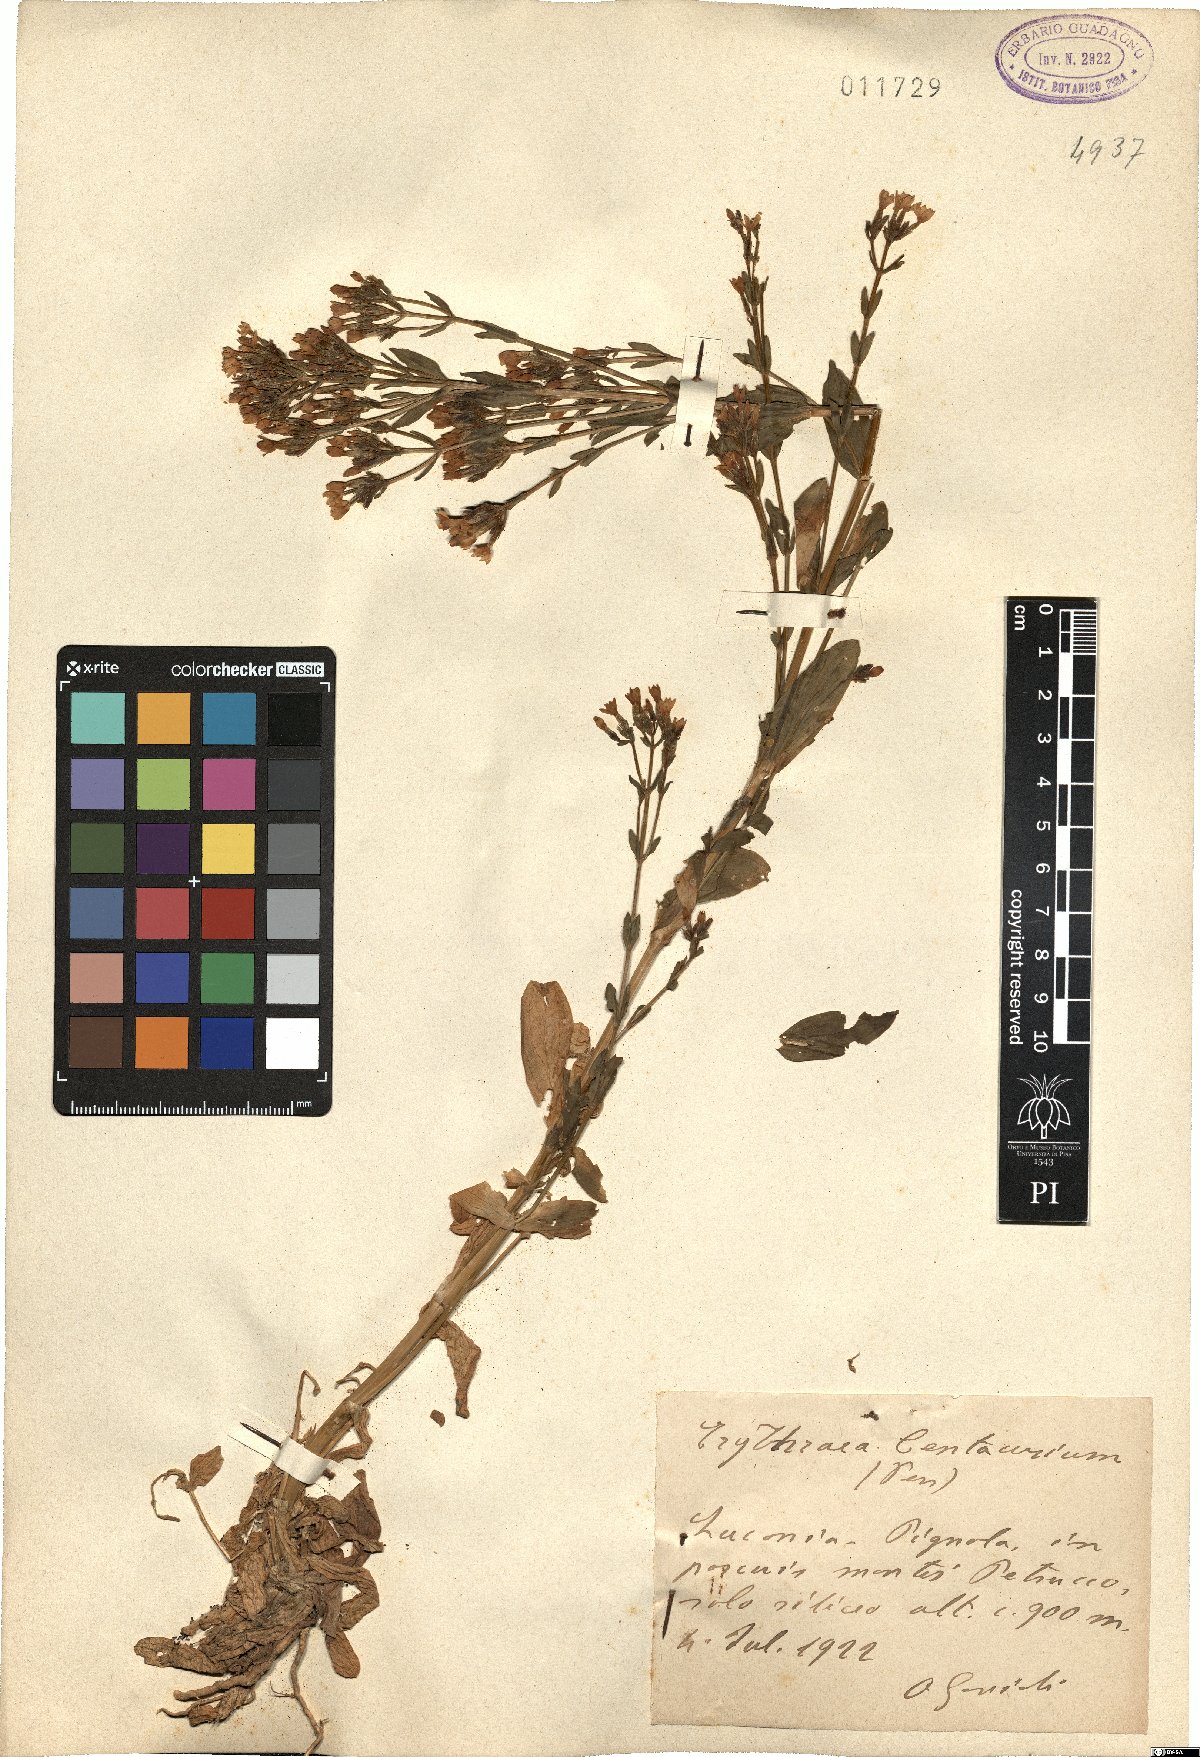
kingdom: Plantae
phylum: Tracheophyta
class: Magnoliopsida
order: Gentianales
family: Gentianaceae
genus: Centaurium
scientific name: Centaurium erythraea
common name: Common centaury
